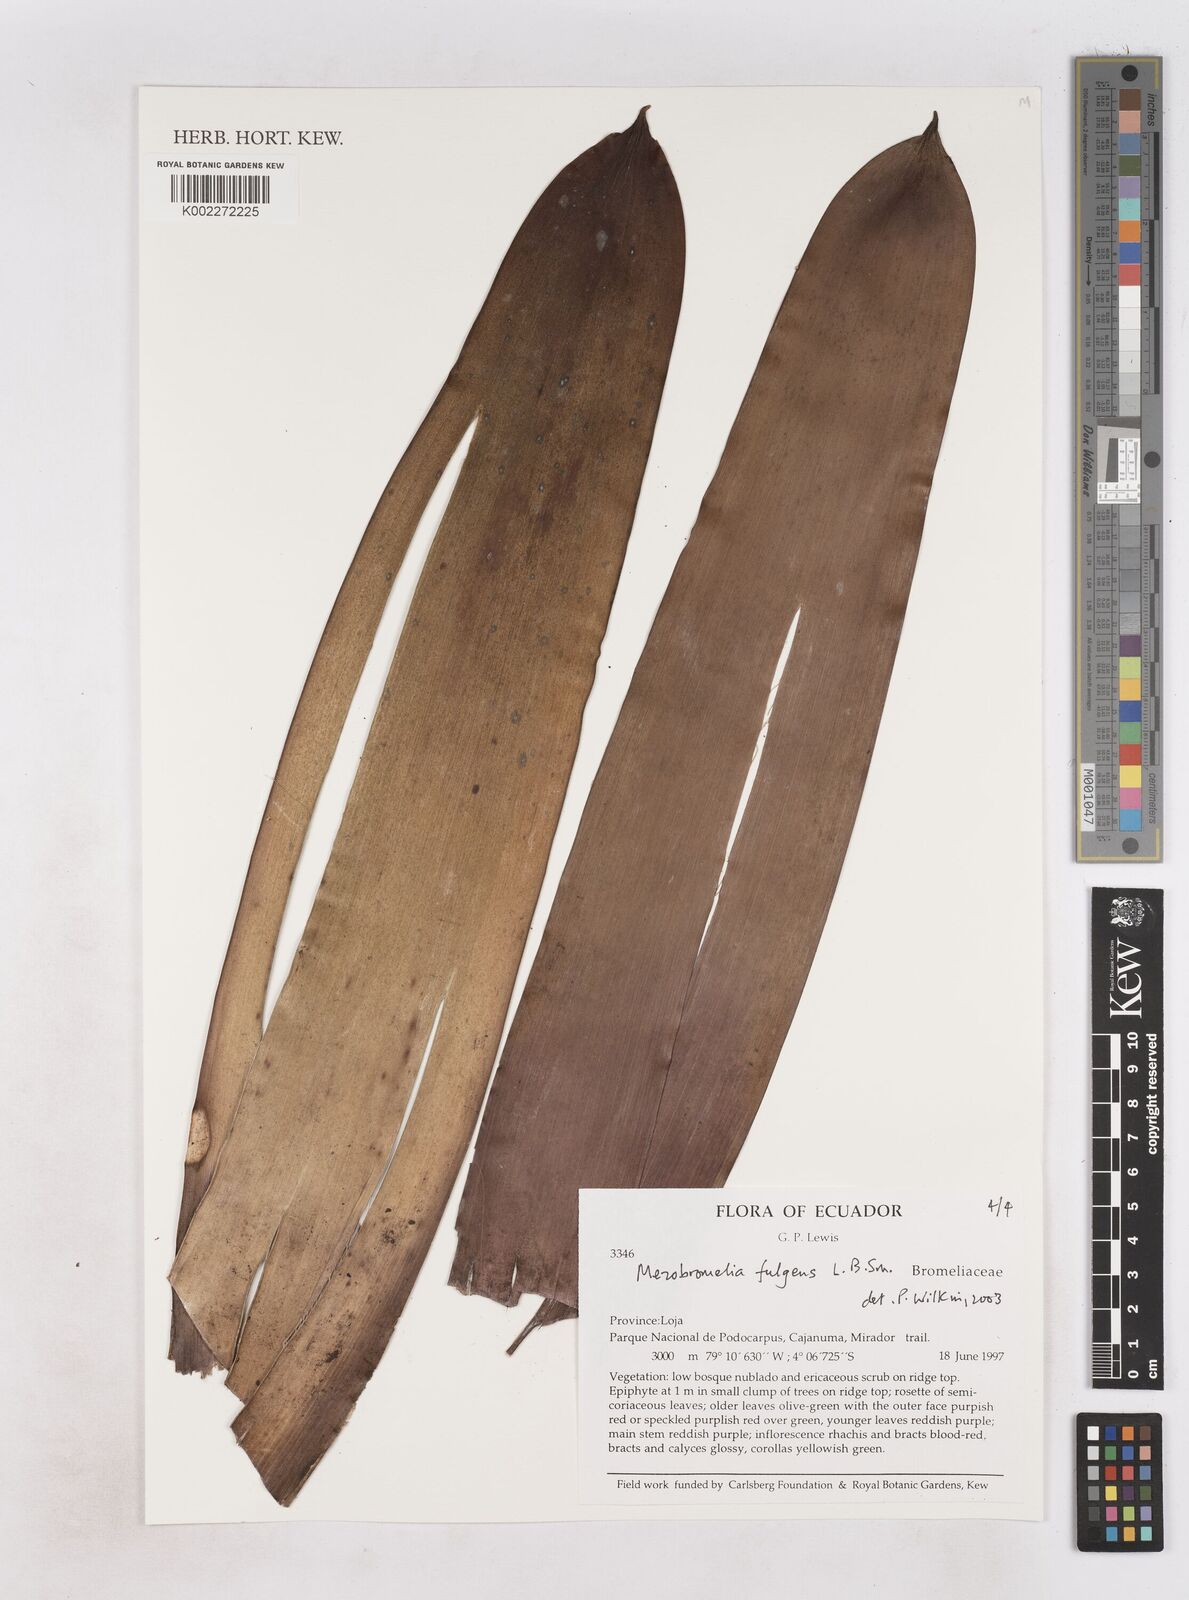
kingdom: Plantae
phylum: Tracheophyta
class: Liliopsida
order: Poales
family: Bromeliaceae
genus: Gregbrownia
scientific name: Gregbrownia fulgens
